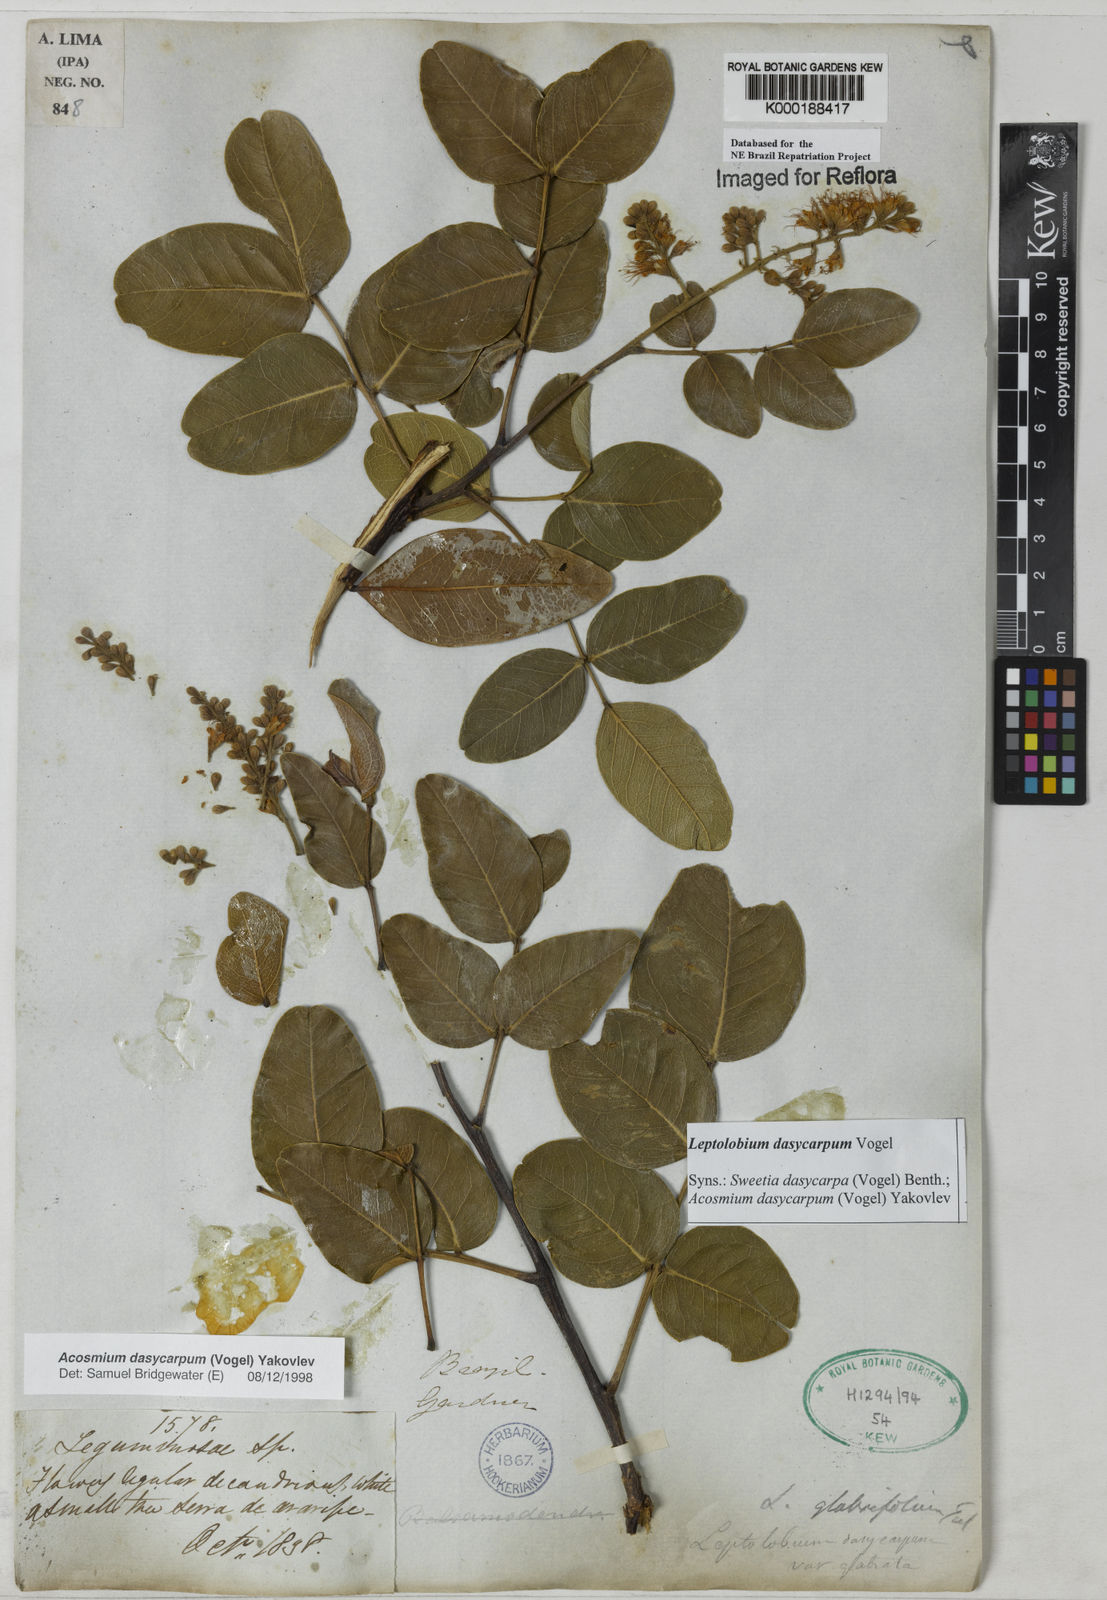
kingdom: Plantae
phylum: Tracheophyta
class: Magnoliopsida
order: Fabales
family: Fabaceae
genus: Leptolobium
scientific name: Leptolobium dasycarpum
